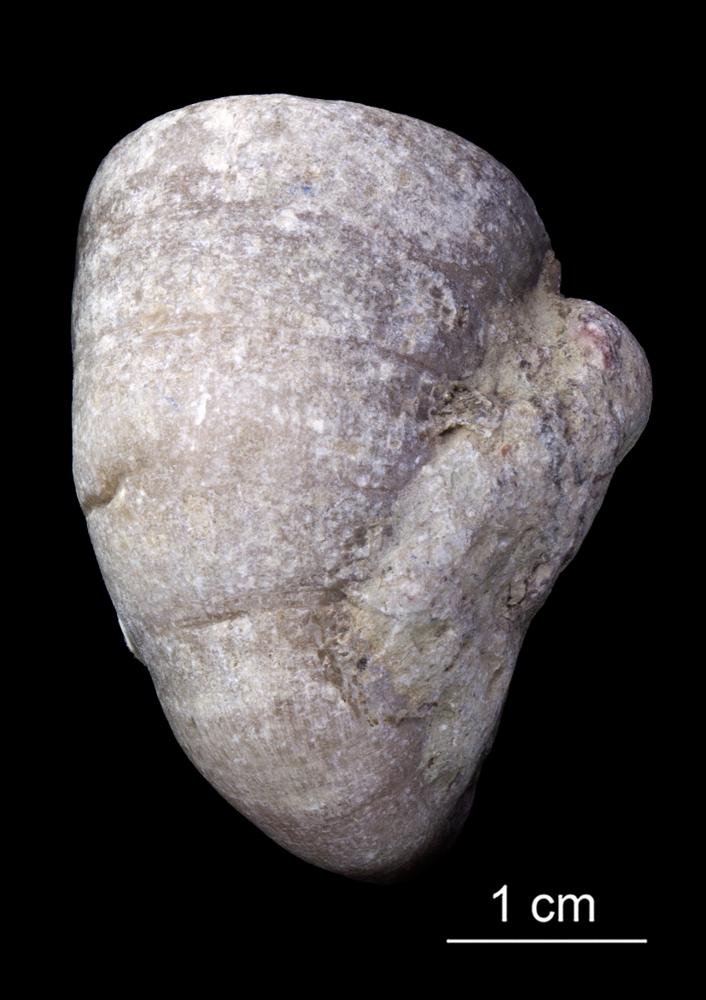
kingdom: Animalia
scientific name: Animalia
